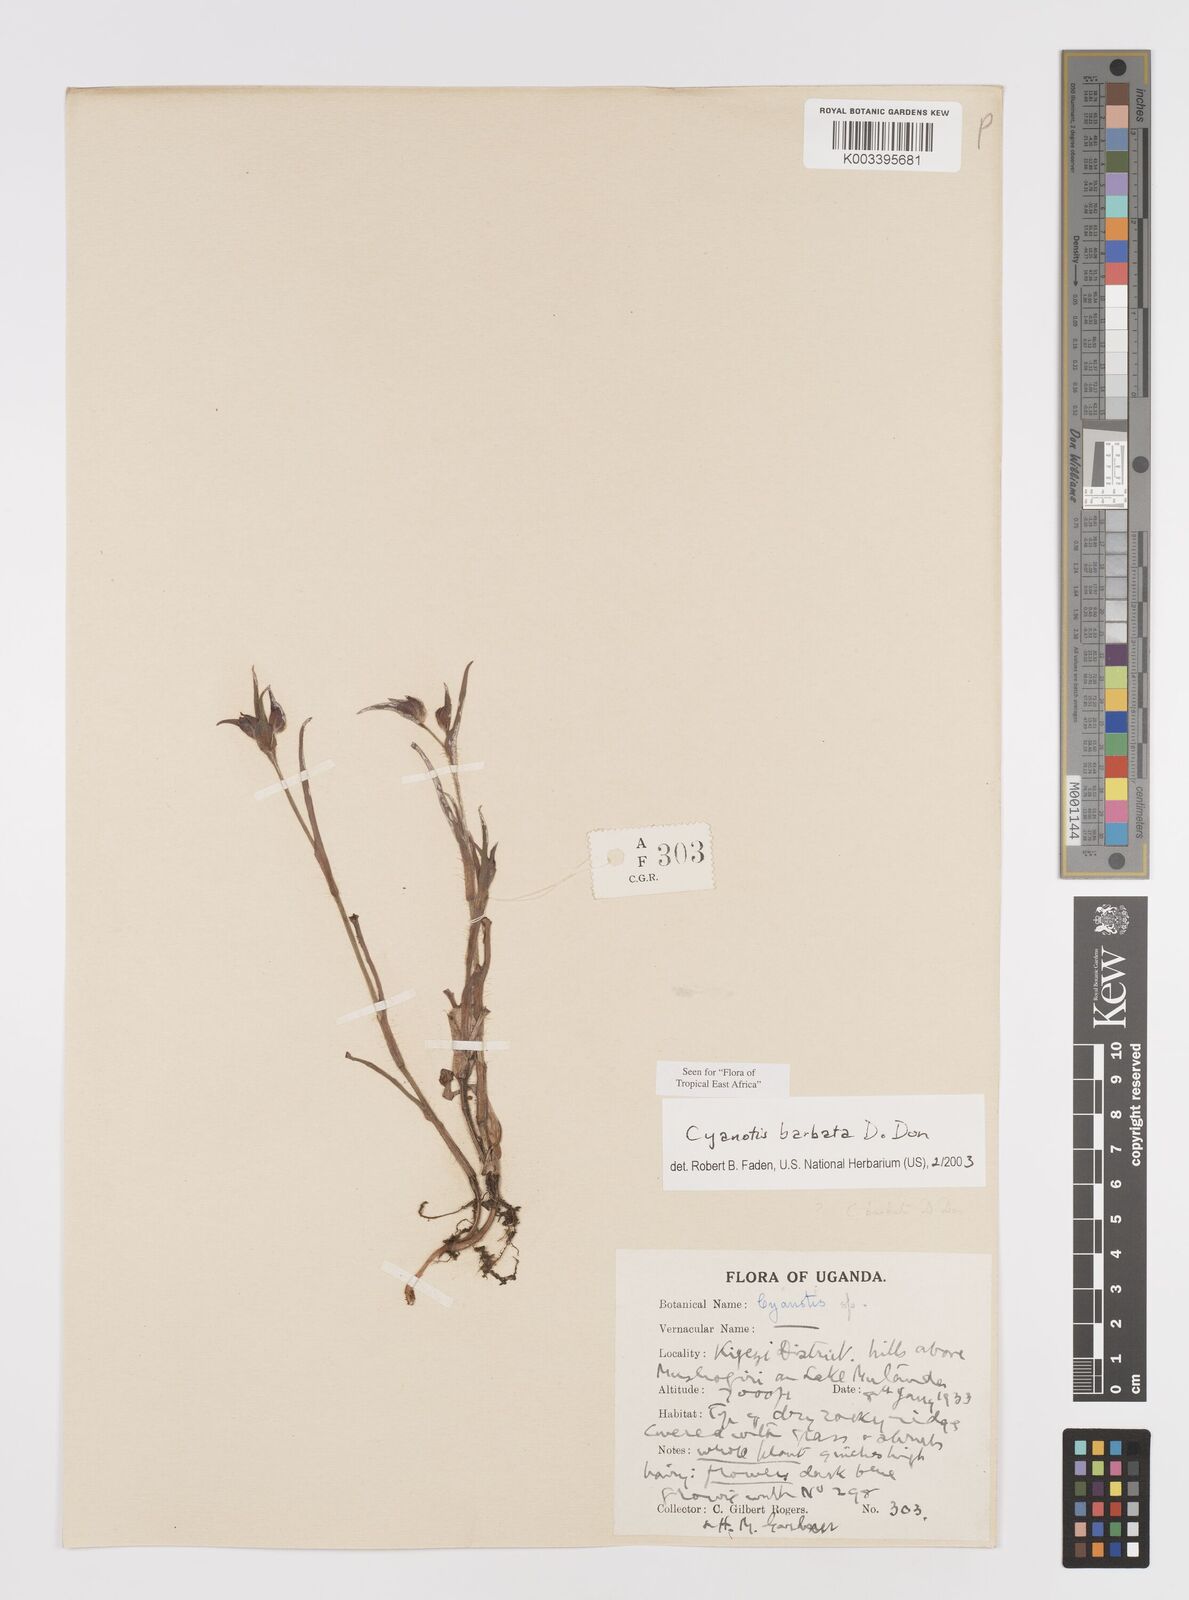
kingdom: Plantae
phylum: Tracheophyta
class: Liliopsida
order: Commelinales
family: Commelinaceae
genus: Cyanotis
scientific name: Cyanotis vaga
